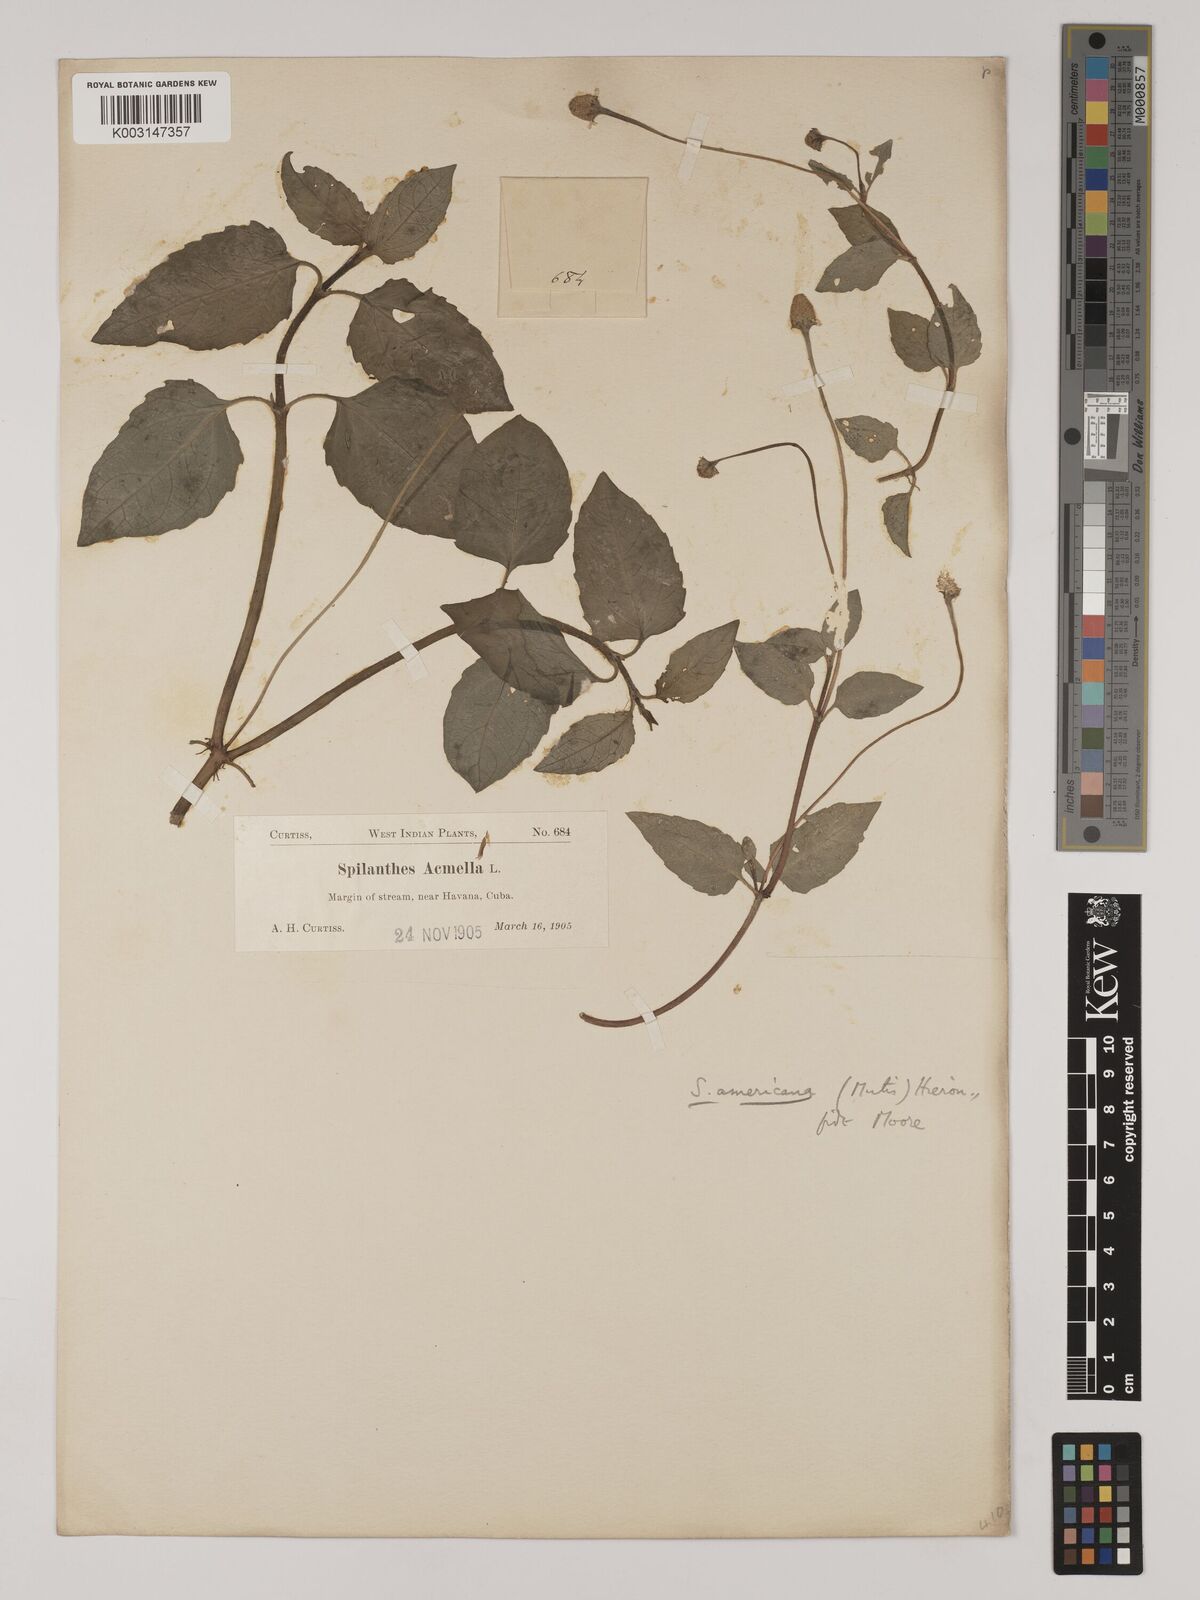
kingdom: Plantae
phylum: Tracheophyta
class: Magnoliopsida
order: Asterales
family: Asteraceae
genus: Heliopsis
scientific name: Heliopsis buphthalmoides
